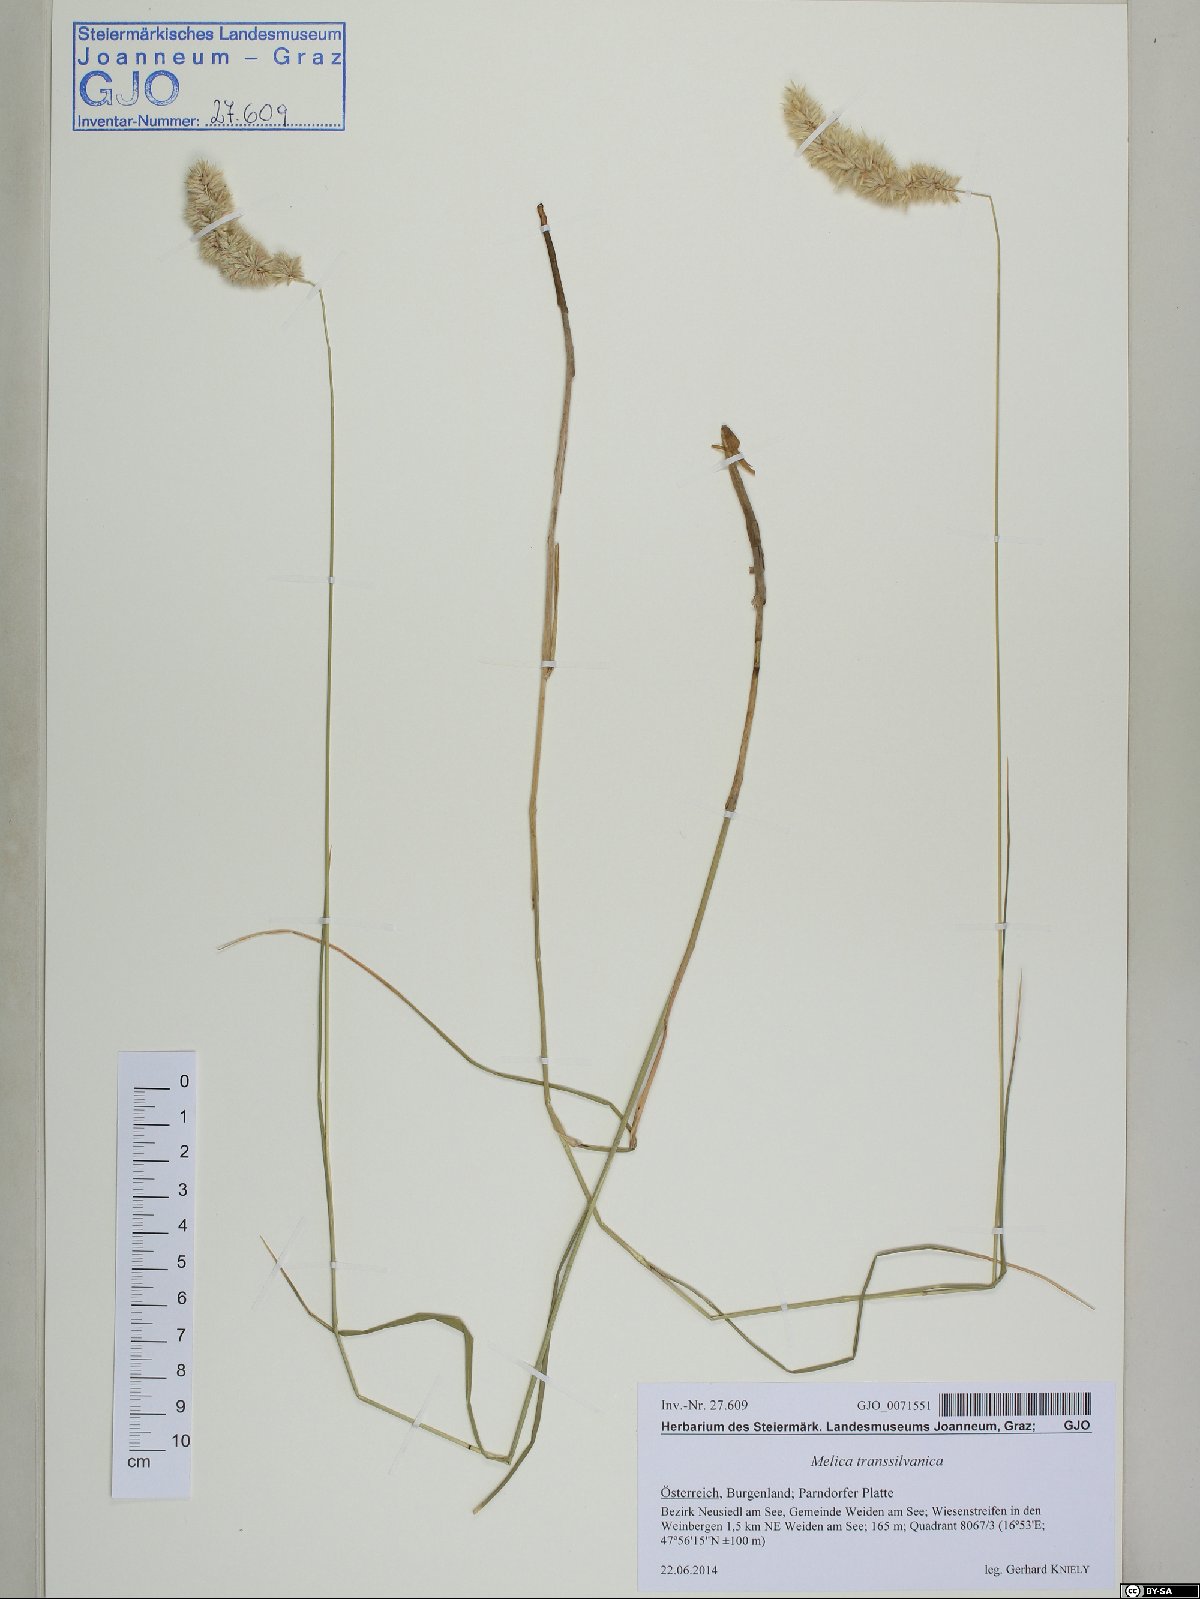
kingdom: Plantae
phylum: Tracheophyta
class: Liliopsida
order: Poales
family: Poaceae
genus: Melica
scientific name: Melica transsilvanica
